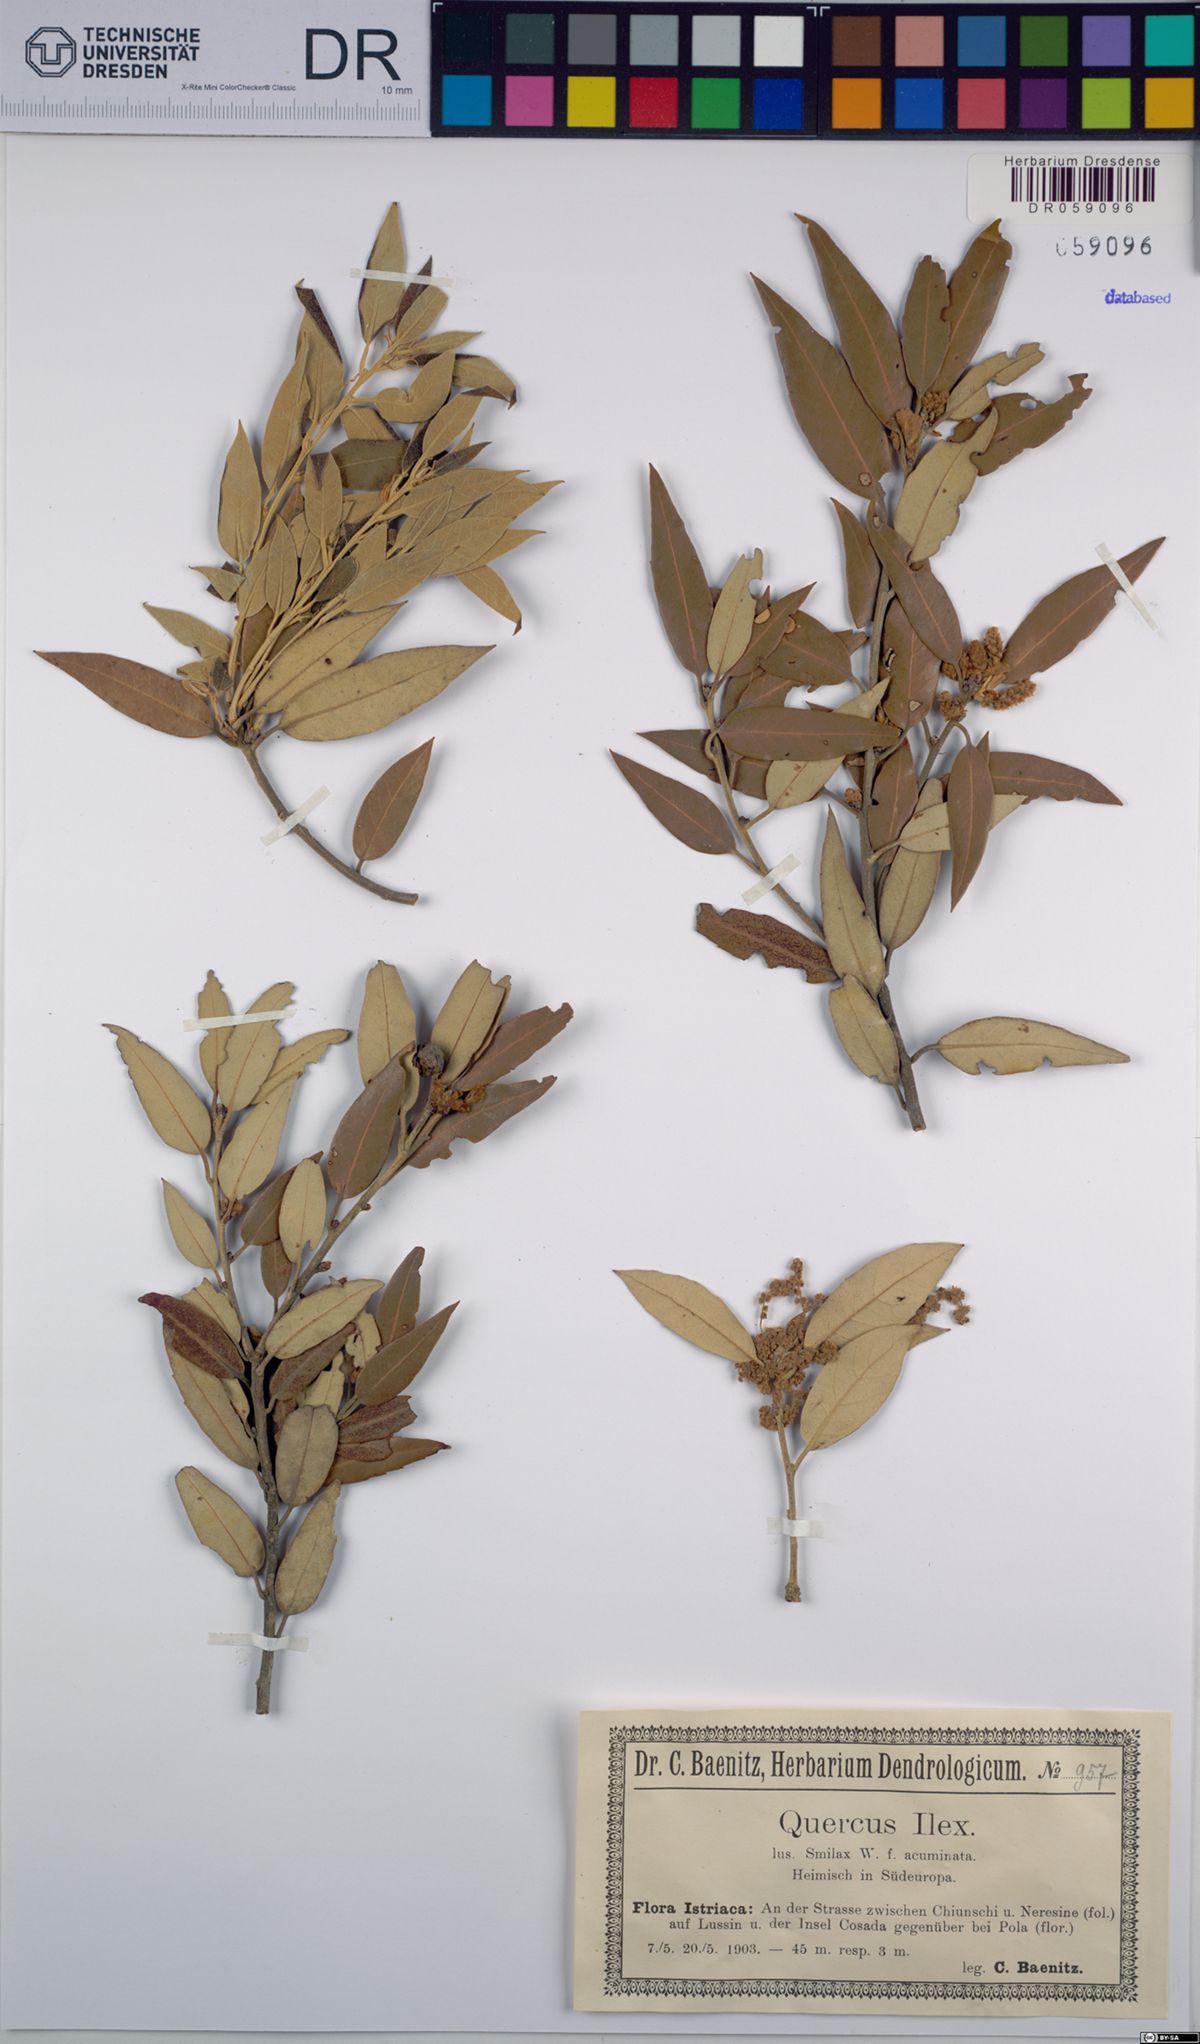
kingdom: Plantae
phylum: Tracheophyta
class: Magnoliopsida
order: Fagales
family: Fagaceae
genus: Quercus
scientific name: Quercus ilex
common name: Evergreen oak
